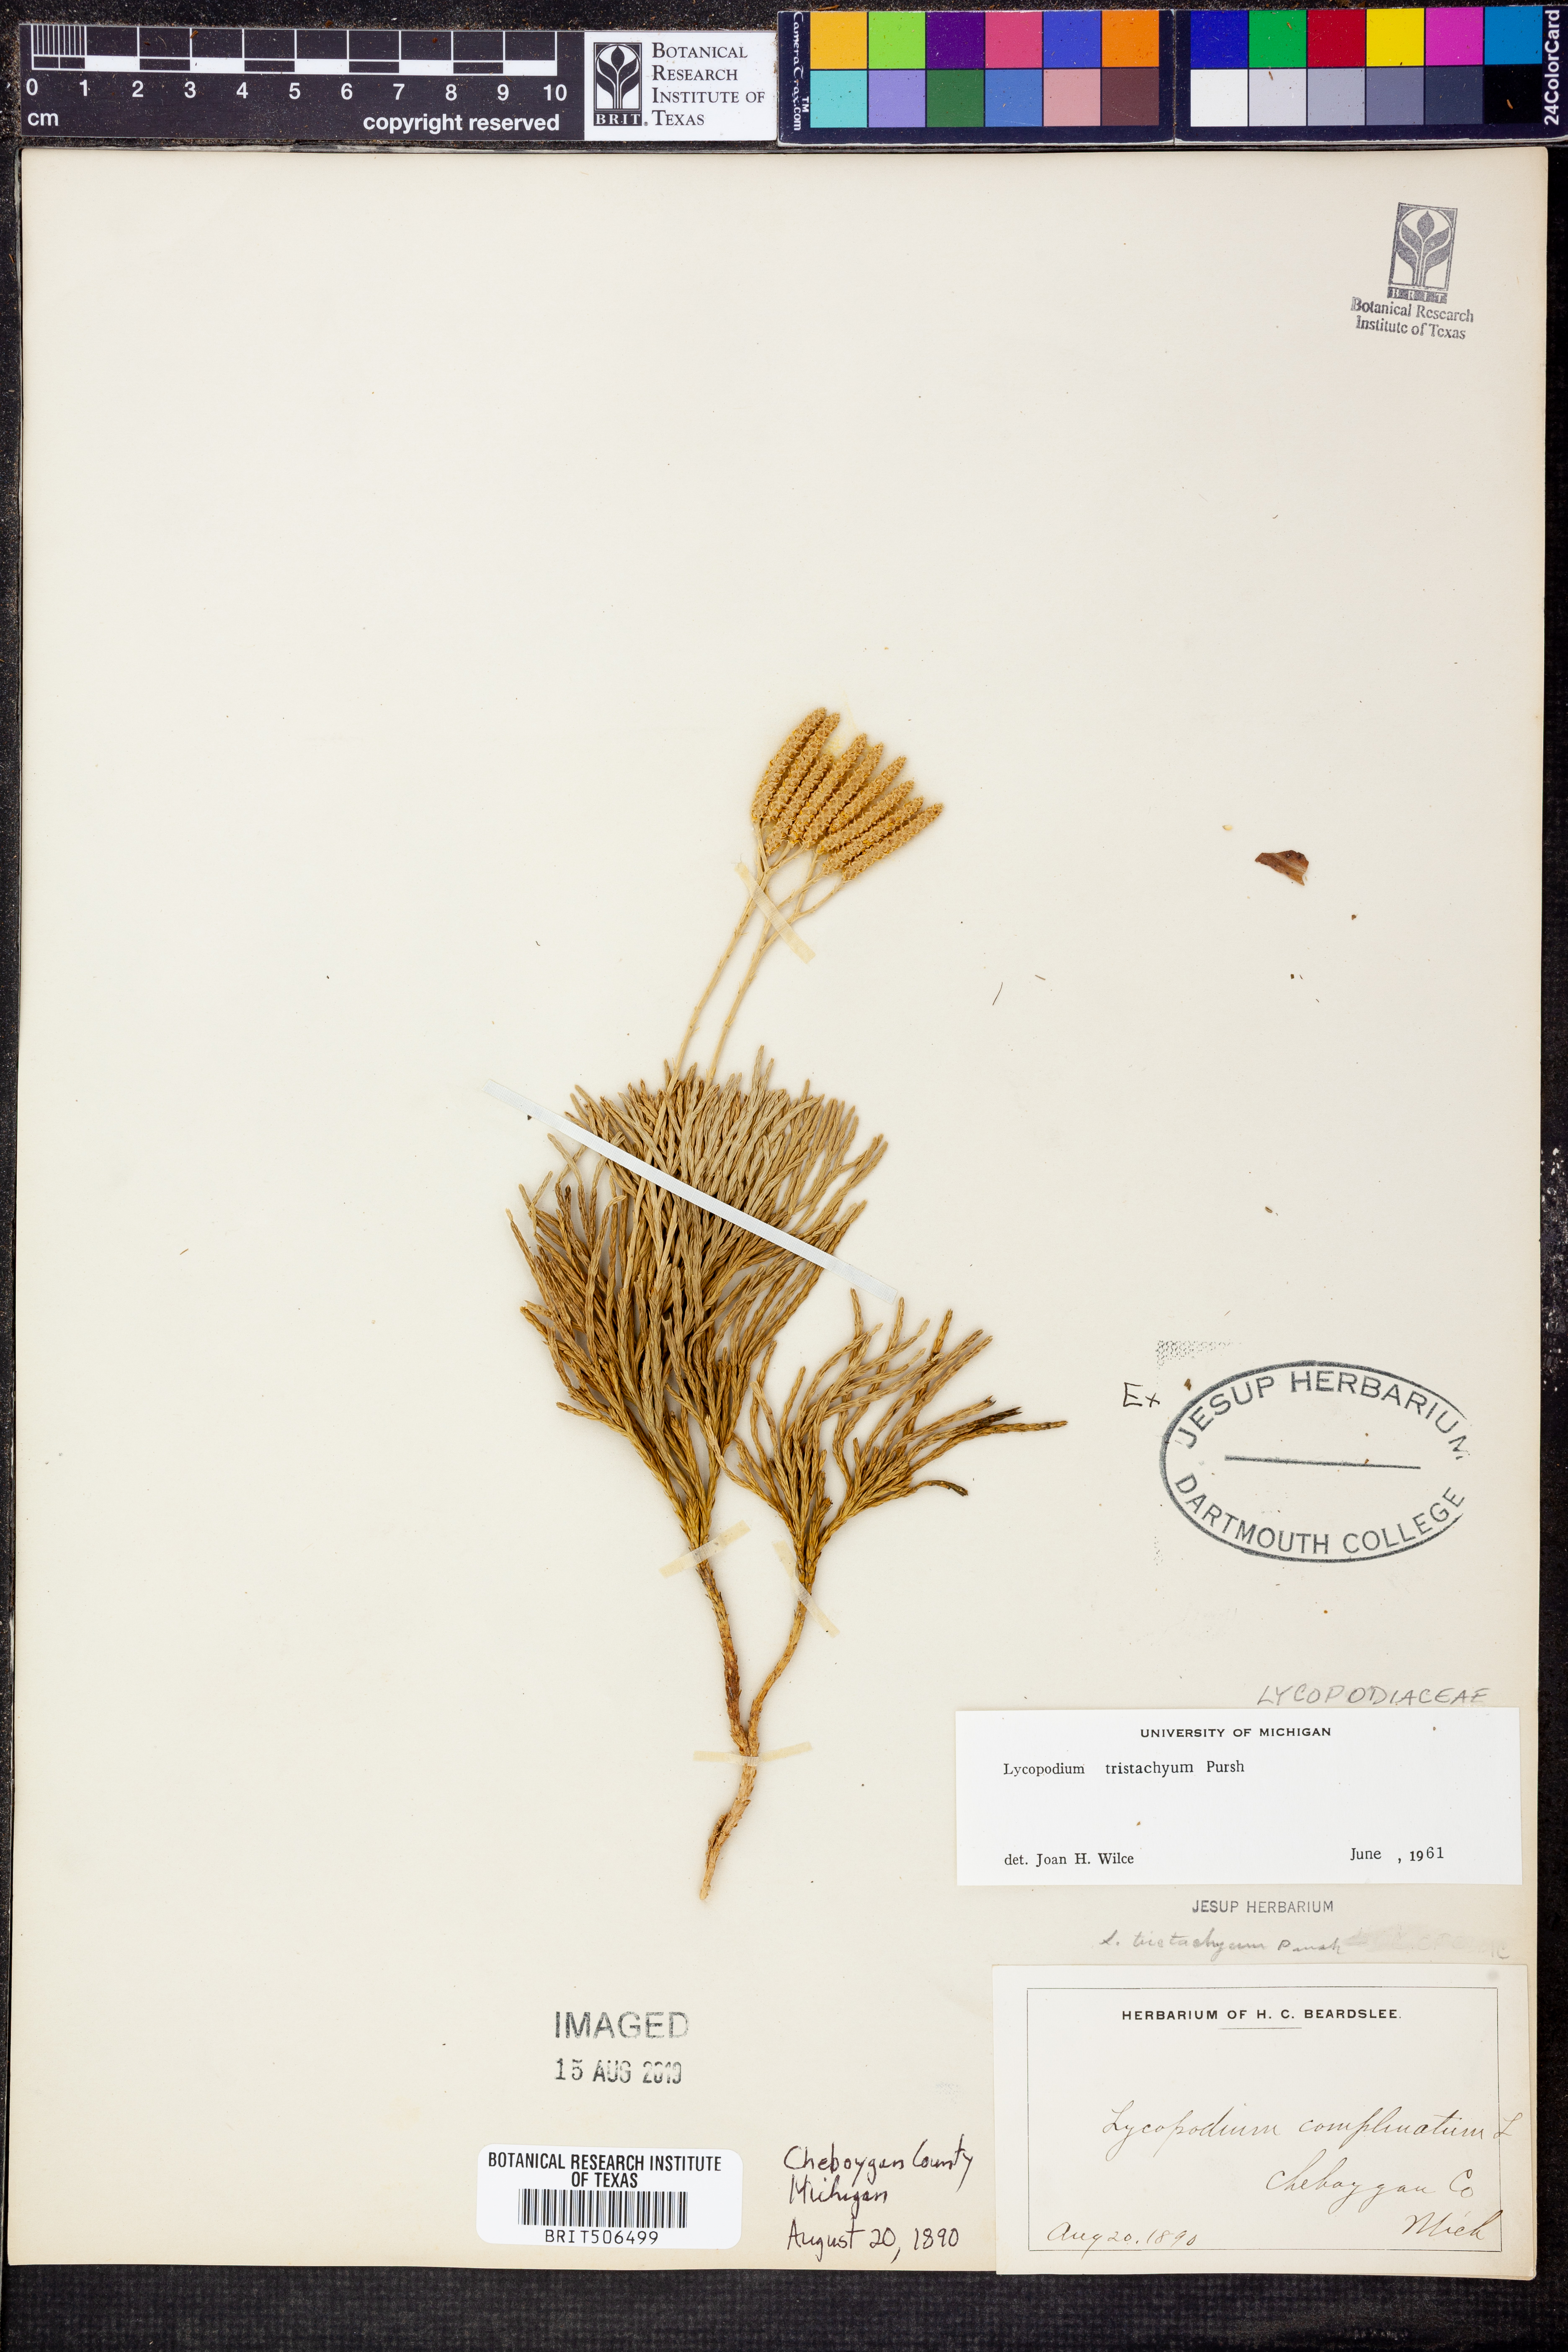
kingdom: Plantae
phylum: Tracheophyta
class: Lycopodiopsida
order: Lycopodiales
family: Lycopodiaceae
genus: Diphasiastrum
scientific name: Diphasiastrum tristachyum
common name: Blue ground-cedar
